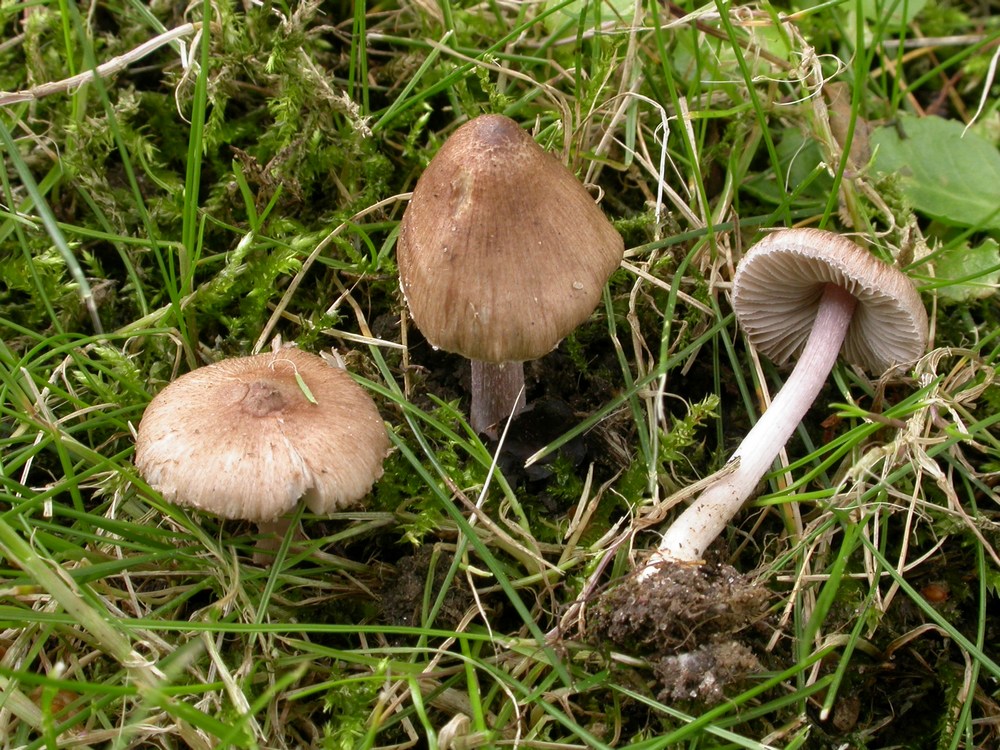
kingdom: Fungi
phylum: Basidiomycota
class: Agaricomycetes
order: Agaricales
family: Inocybaceae
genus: Inocybe
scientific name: Inocybe knautiana
